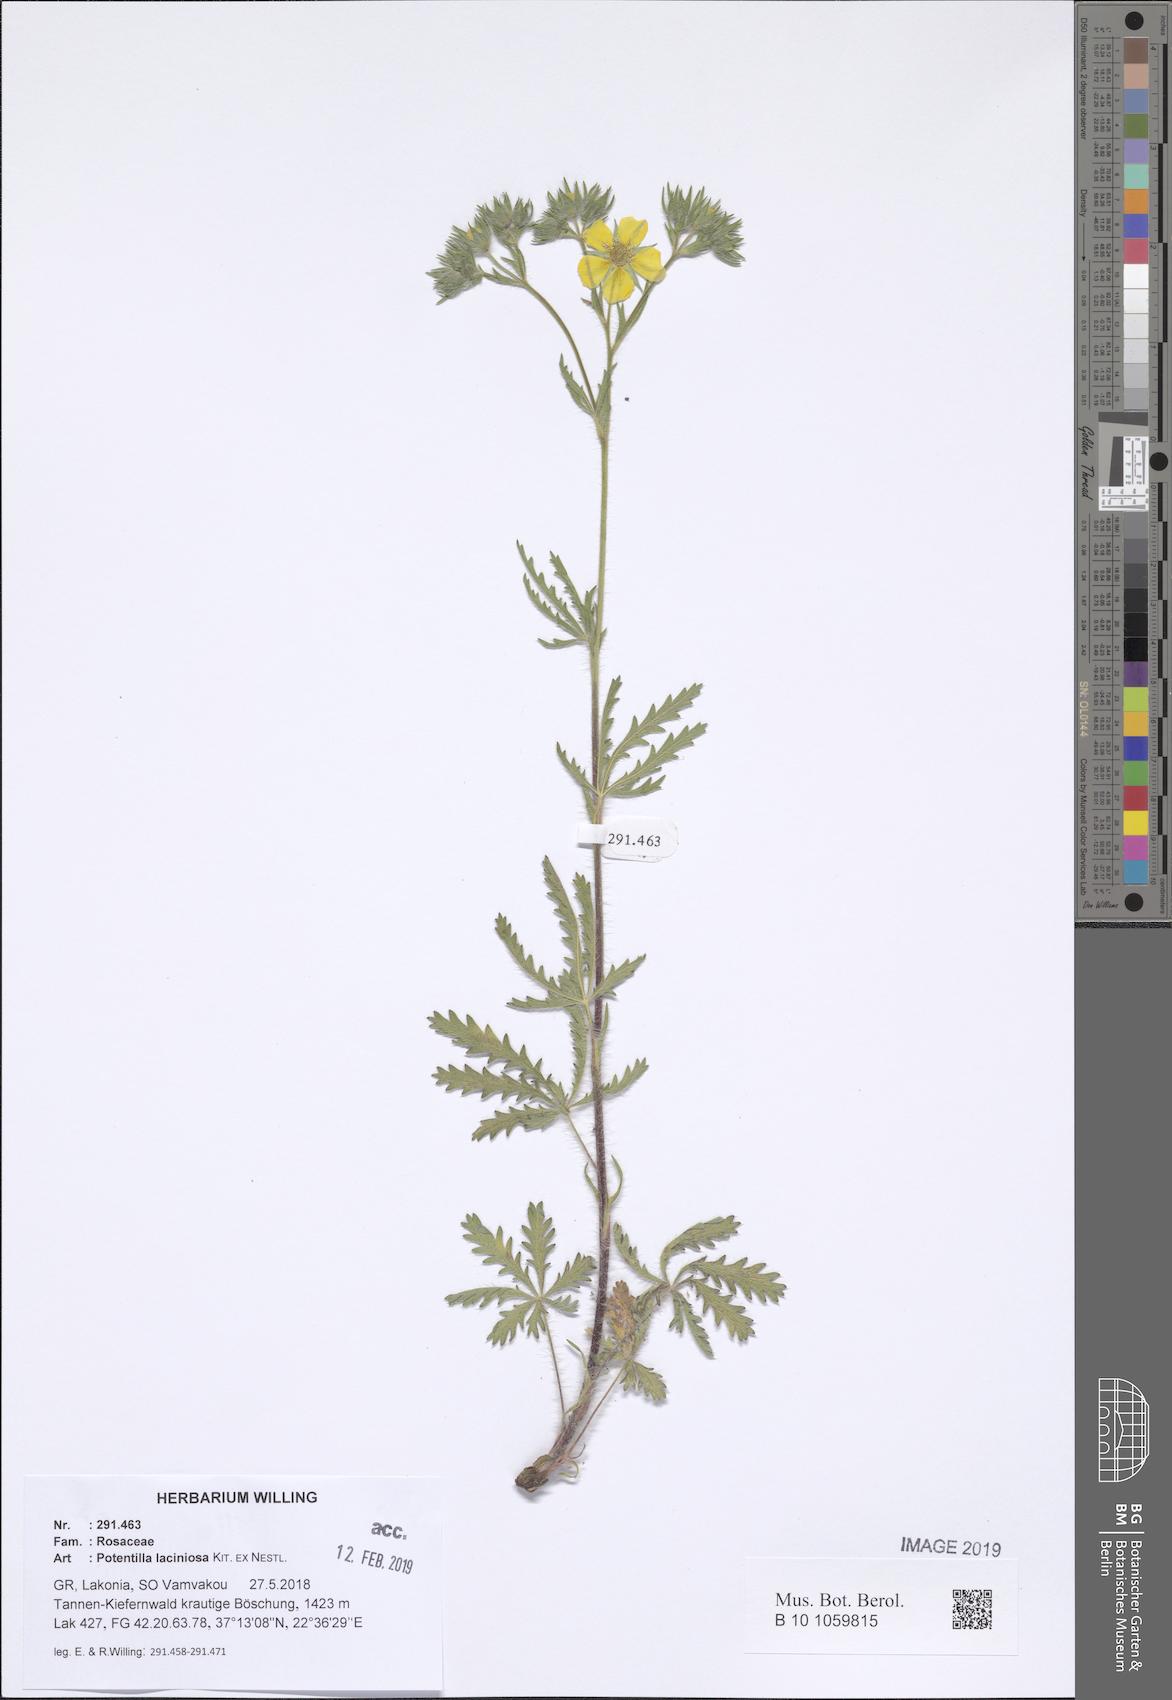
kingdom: Plantae
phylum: Tracheophyta
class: Magnoliopsida
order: Rosales
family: Rosaceae
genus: Potentilla
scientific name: Potentilla recta
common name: Sulphur cinquefoil
